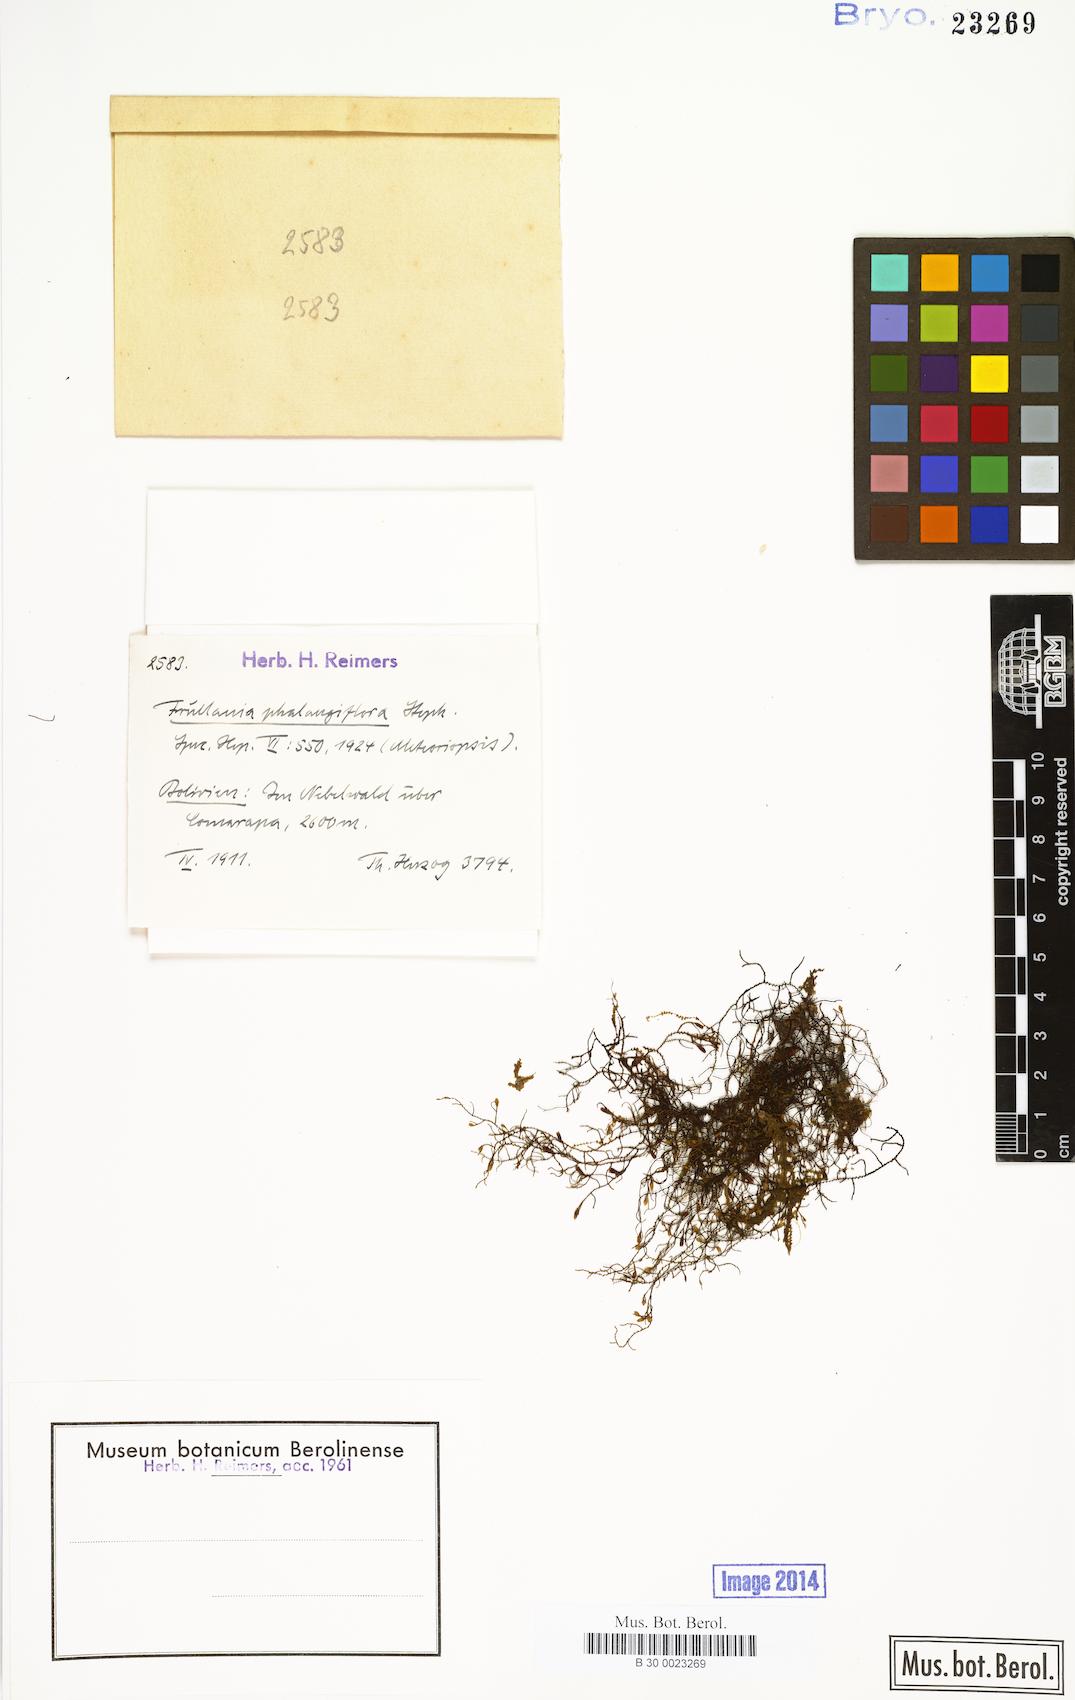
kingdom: Plantae
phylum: Marchantiophyta
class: Jungermanniopsida
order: Porellales
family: Frullaniaceae
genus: Frullania
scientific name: Frullania phalangiflora
